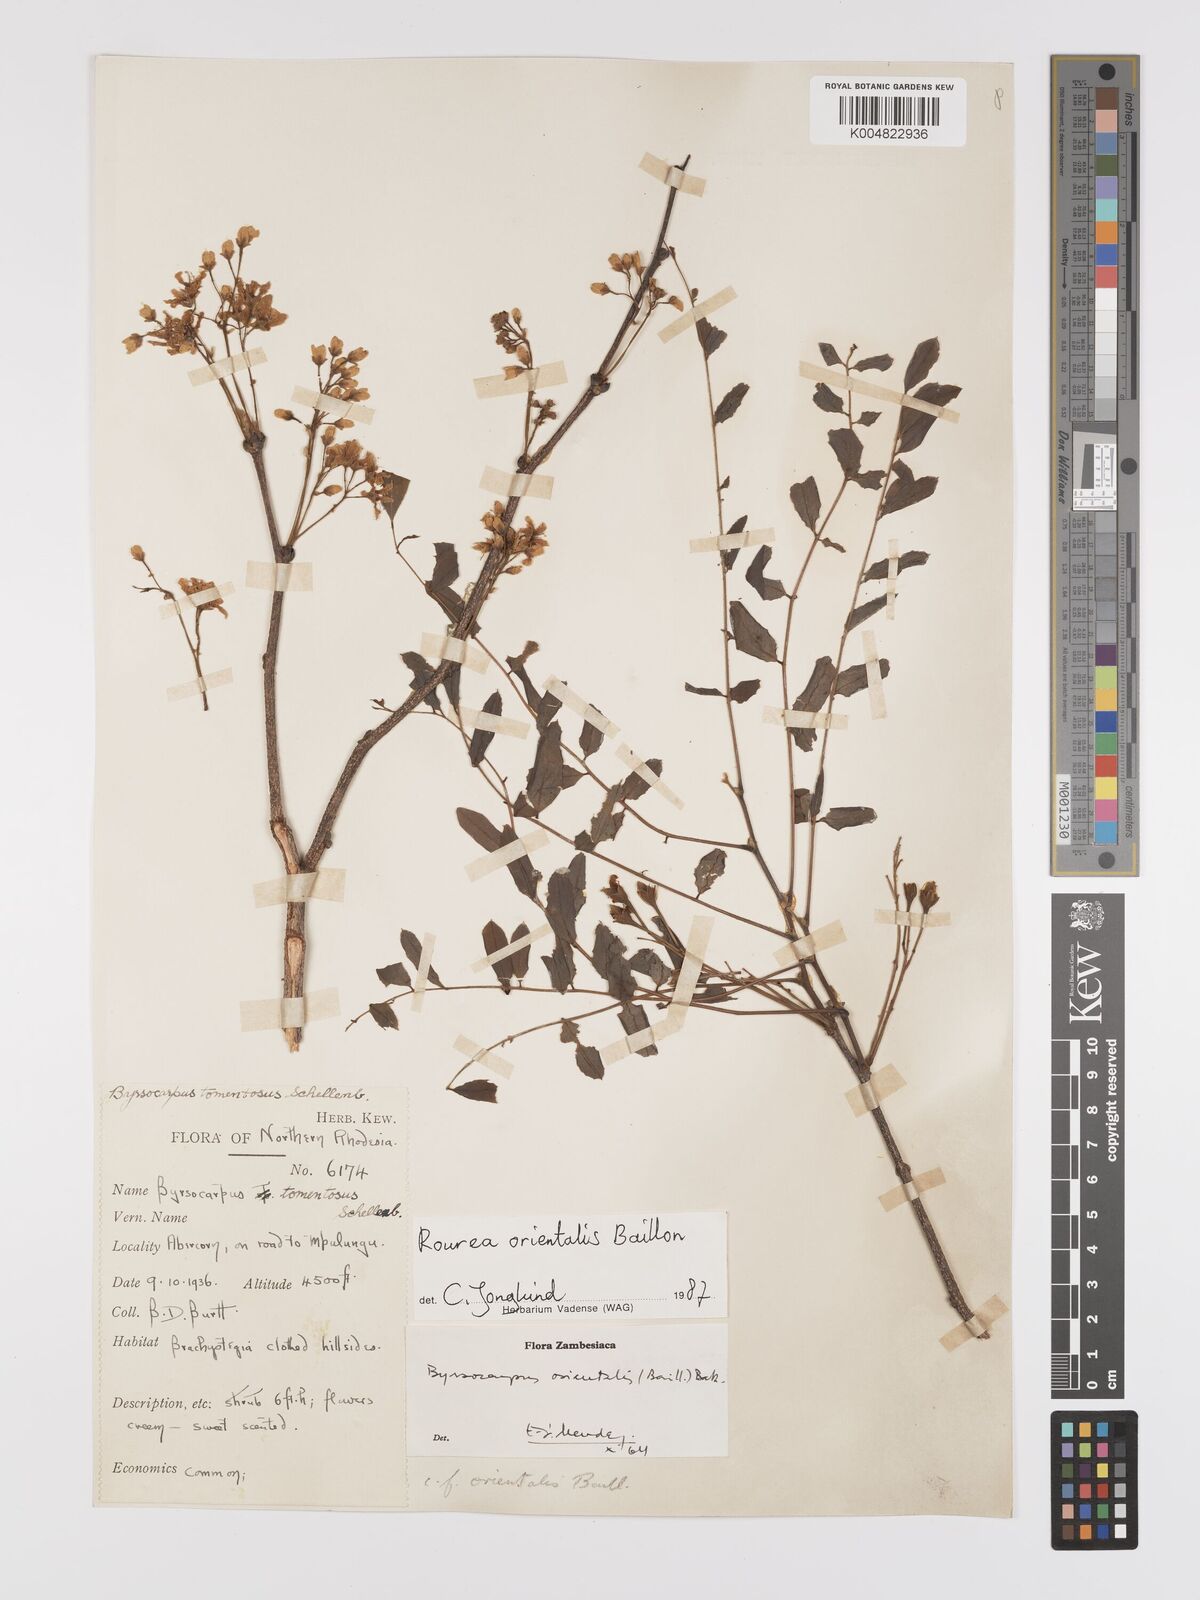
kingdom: Plantae
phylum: Tracheophyta
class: Magnoliopsida
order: Oxalidales
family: Connaraceae
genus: Rourea
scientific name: Rourea orientalis
